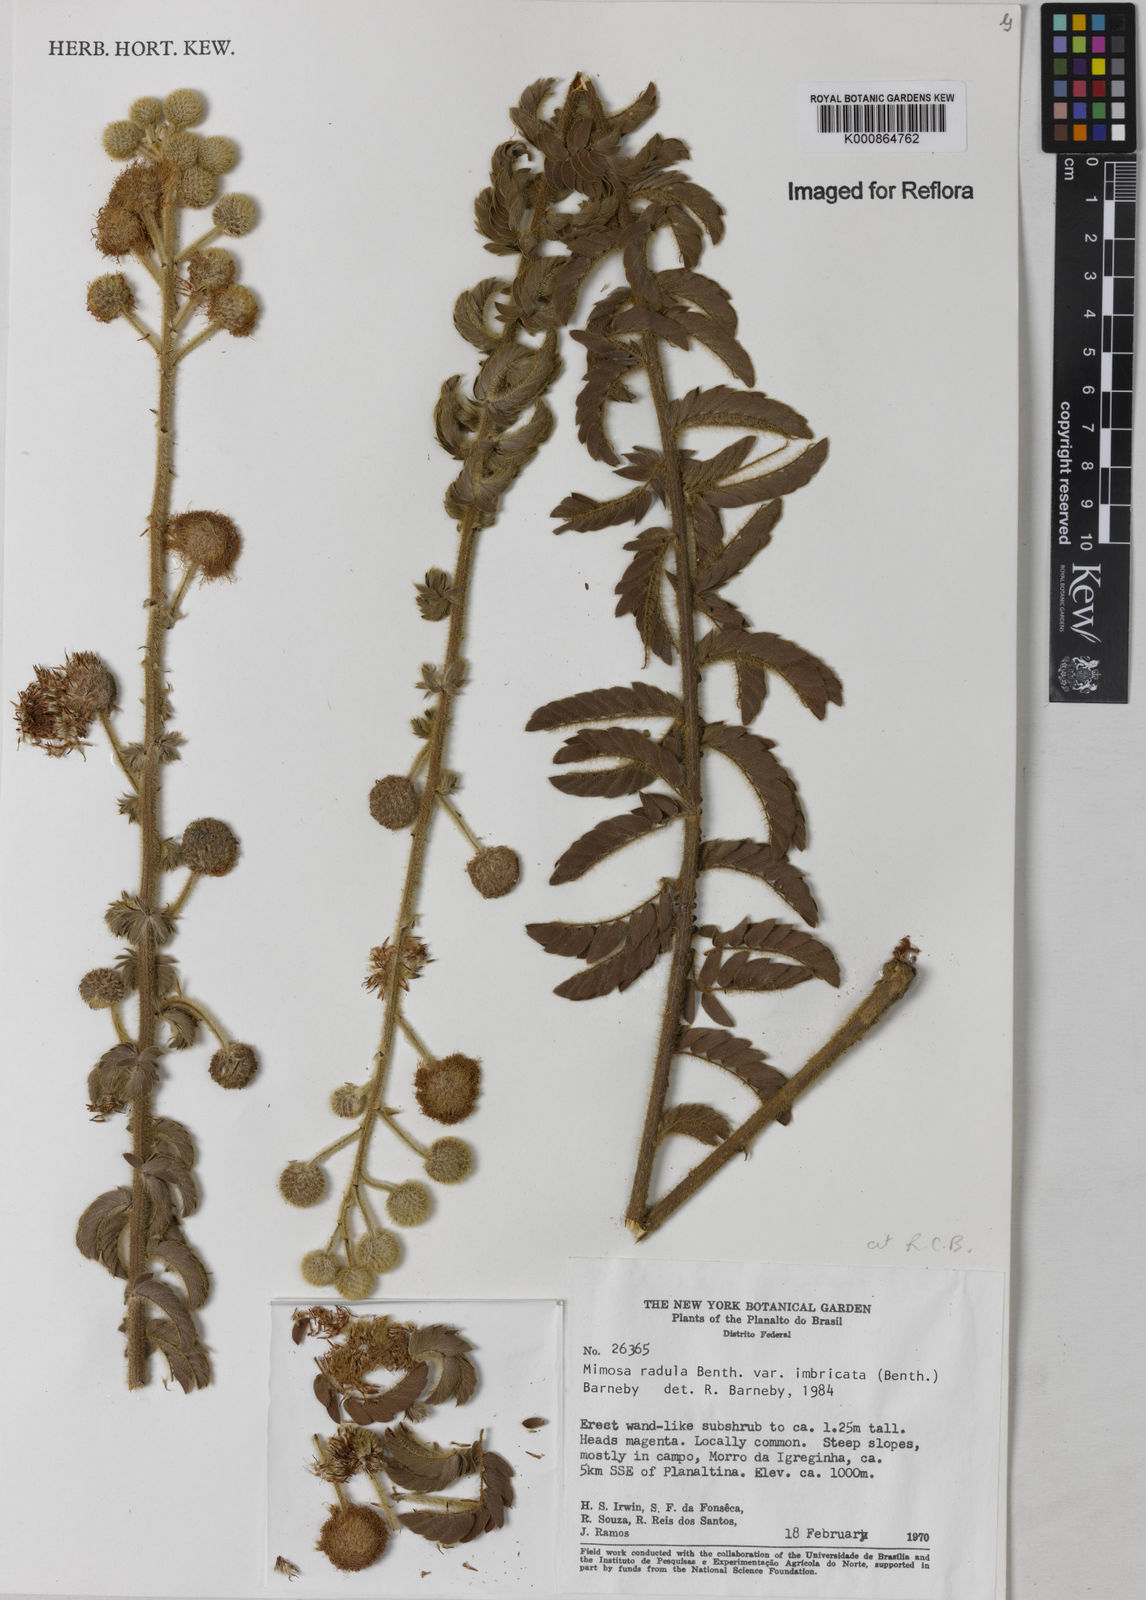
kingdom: Plantae
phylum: Tracheophyta
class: Magnoliopsida
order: Fabales
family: Fabaceae
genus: Mimosa
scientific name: Mimosa radula
